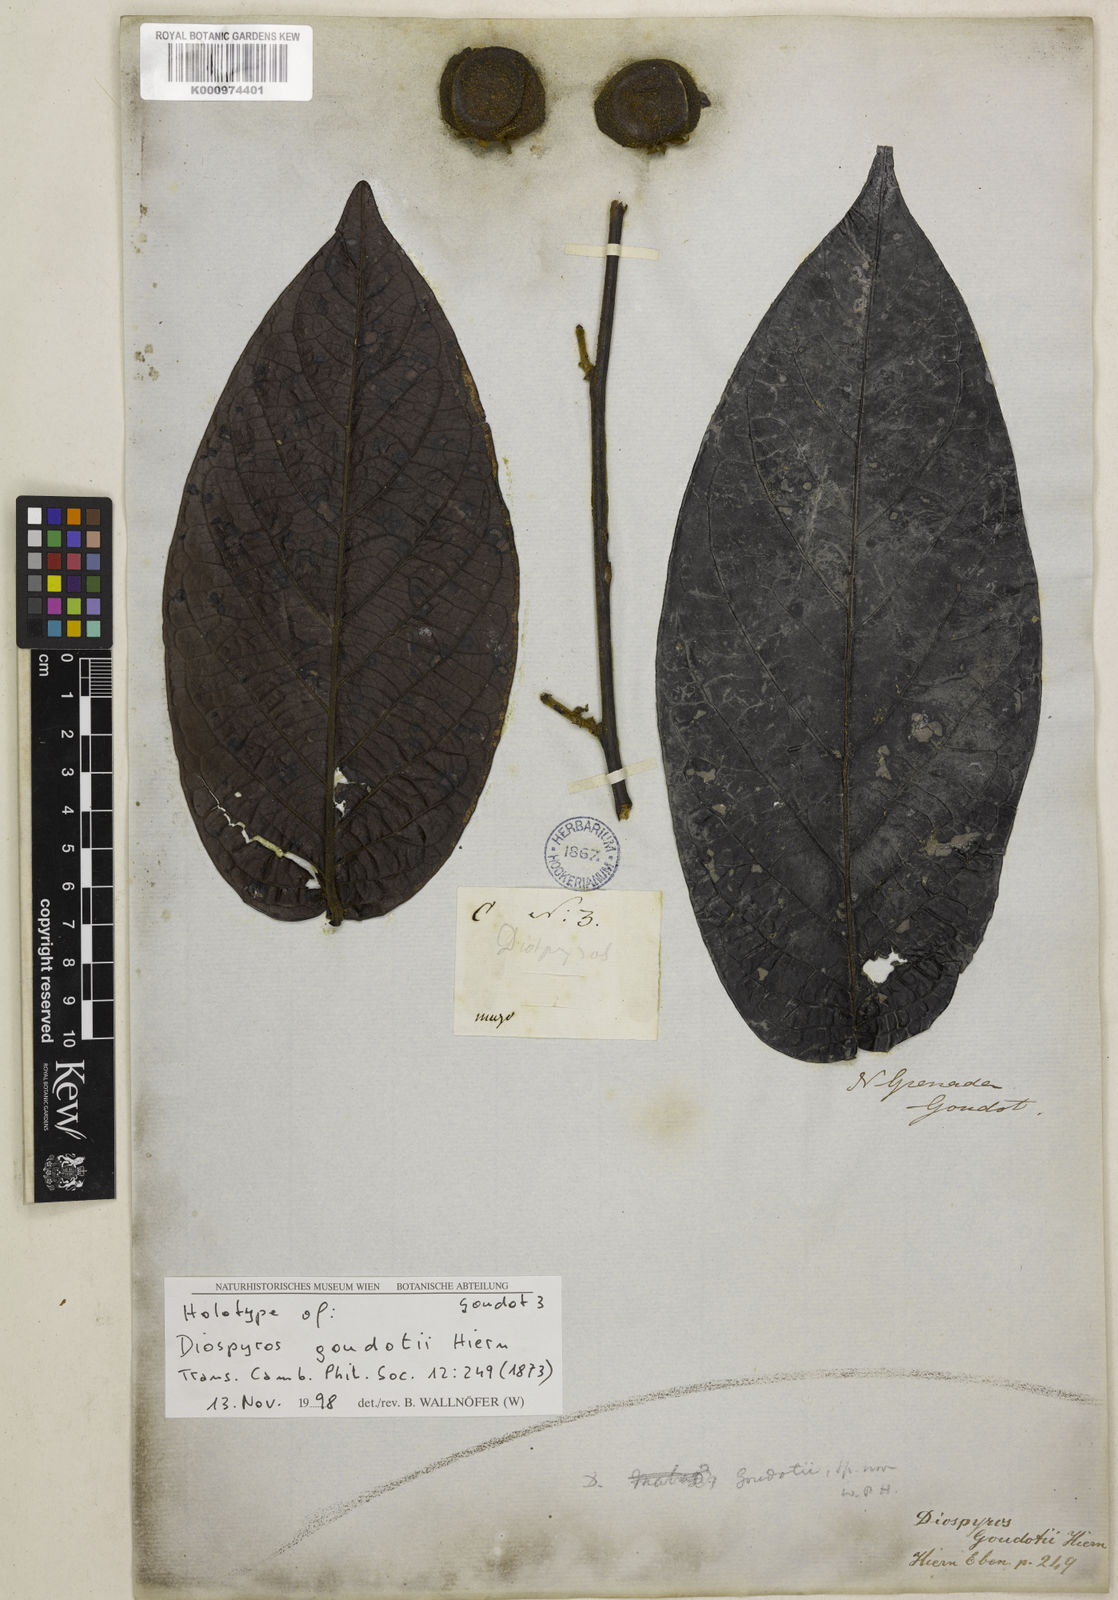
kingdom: Plantae
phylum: Tracheophyta
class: Magnoliopsida
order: Ericales
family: Ebenaceae
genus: Diospyros
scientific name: Diospyros goudotii
